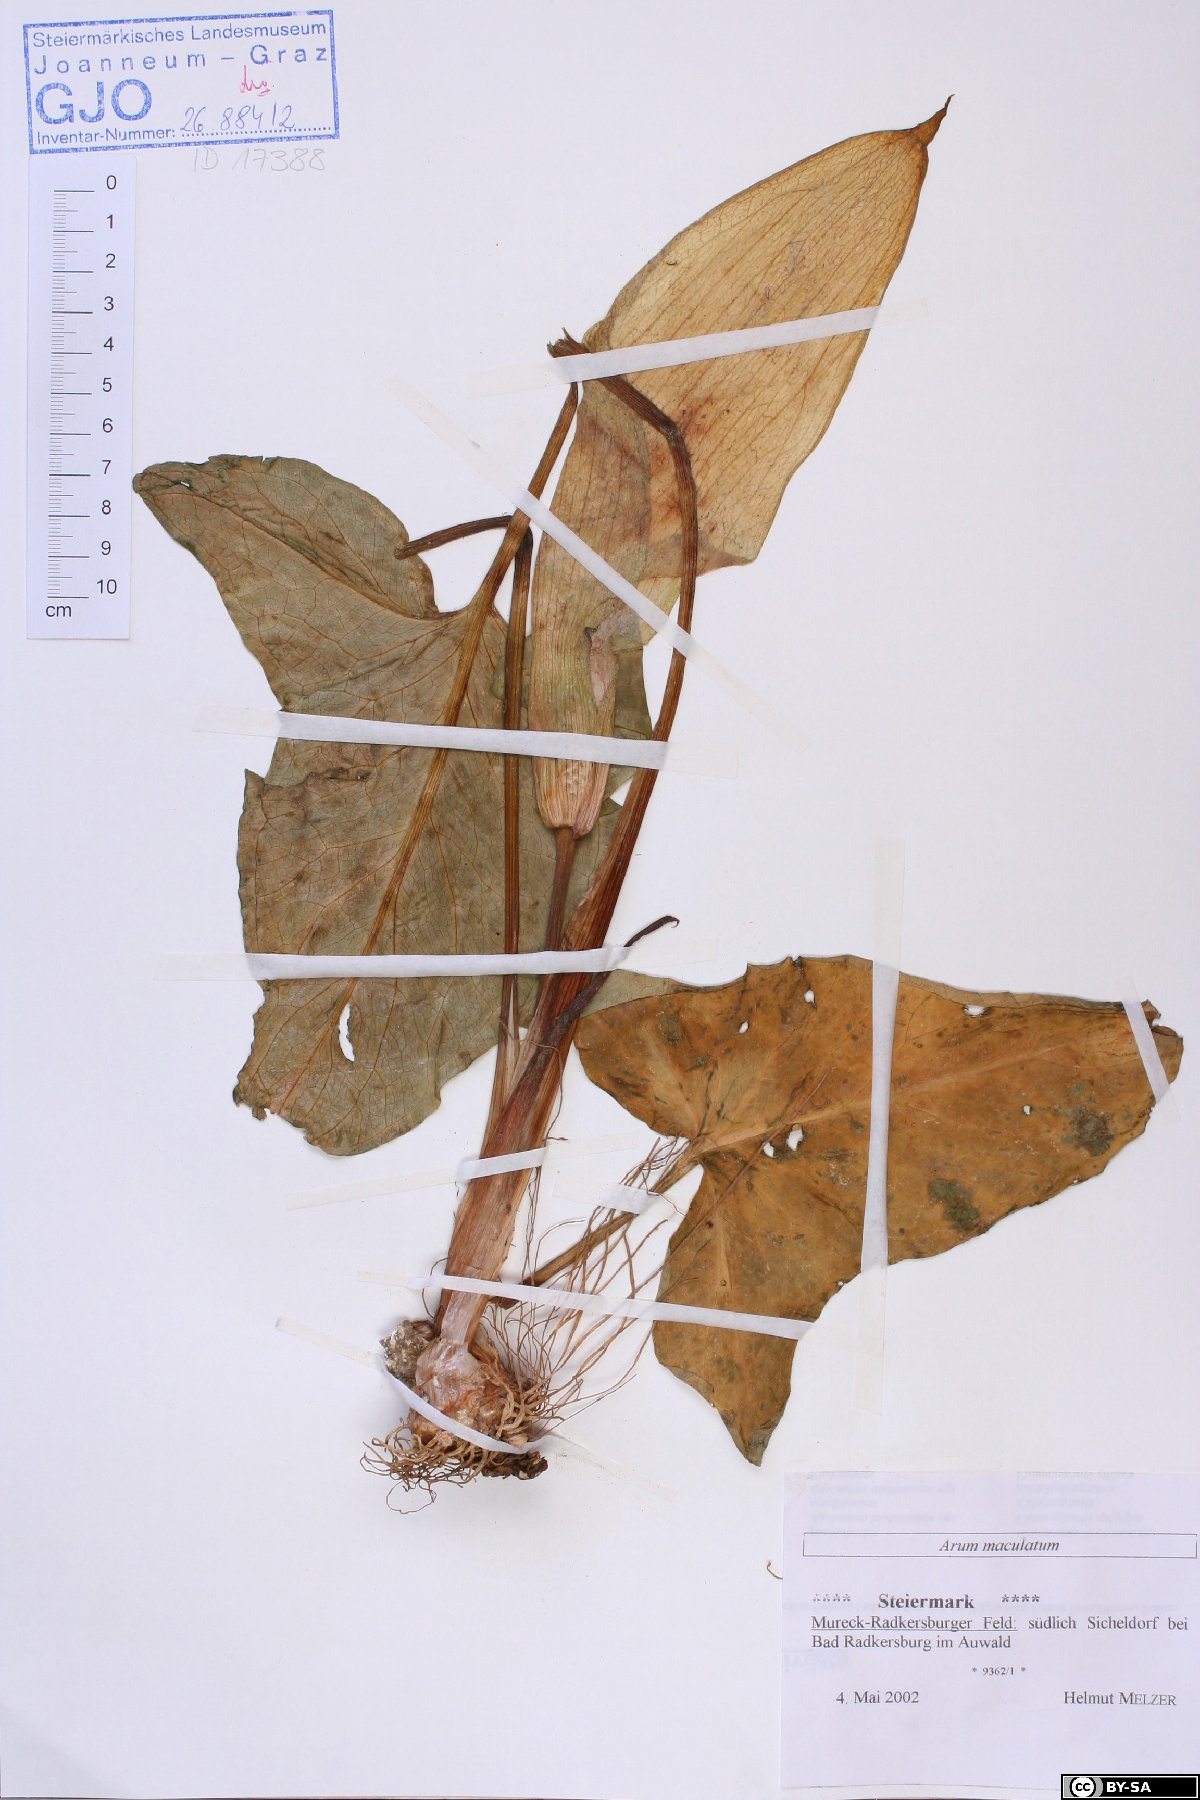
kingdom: Plantae
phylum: Tracheophyta
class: Liliopsida
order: Alismatales
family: Araceae
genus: Arum
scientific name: Arum maculatum
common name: Lords-and-ladies
